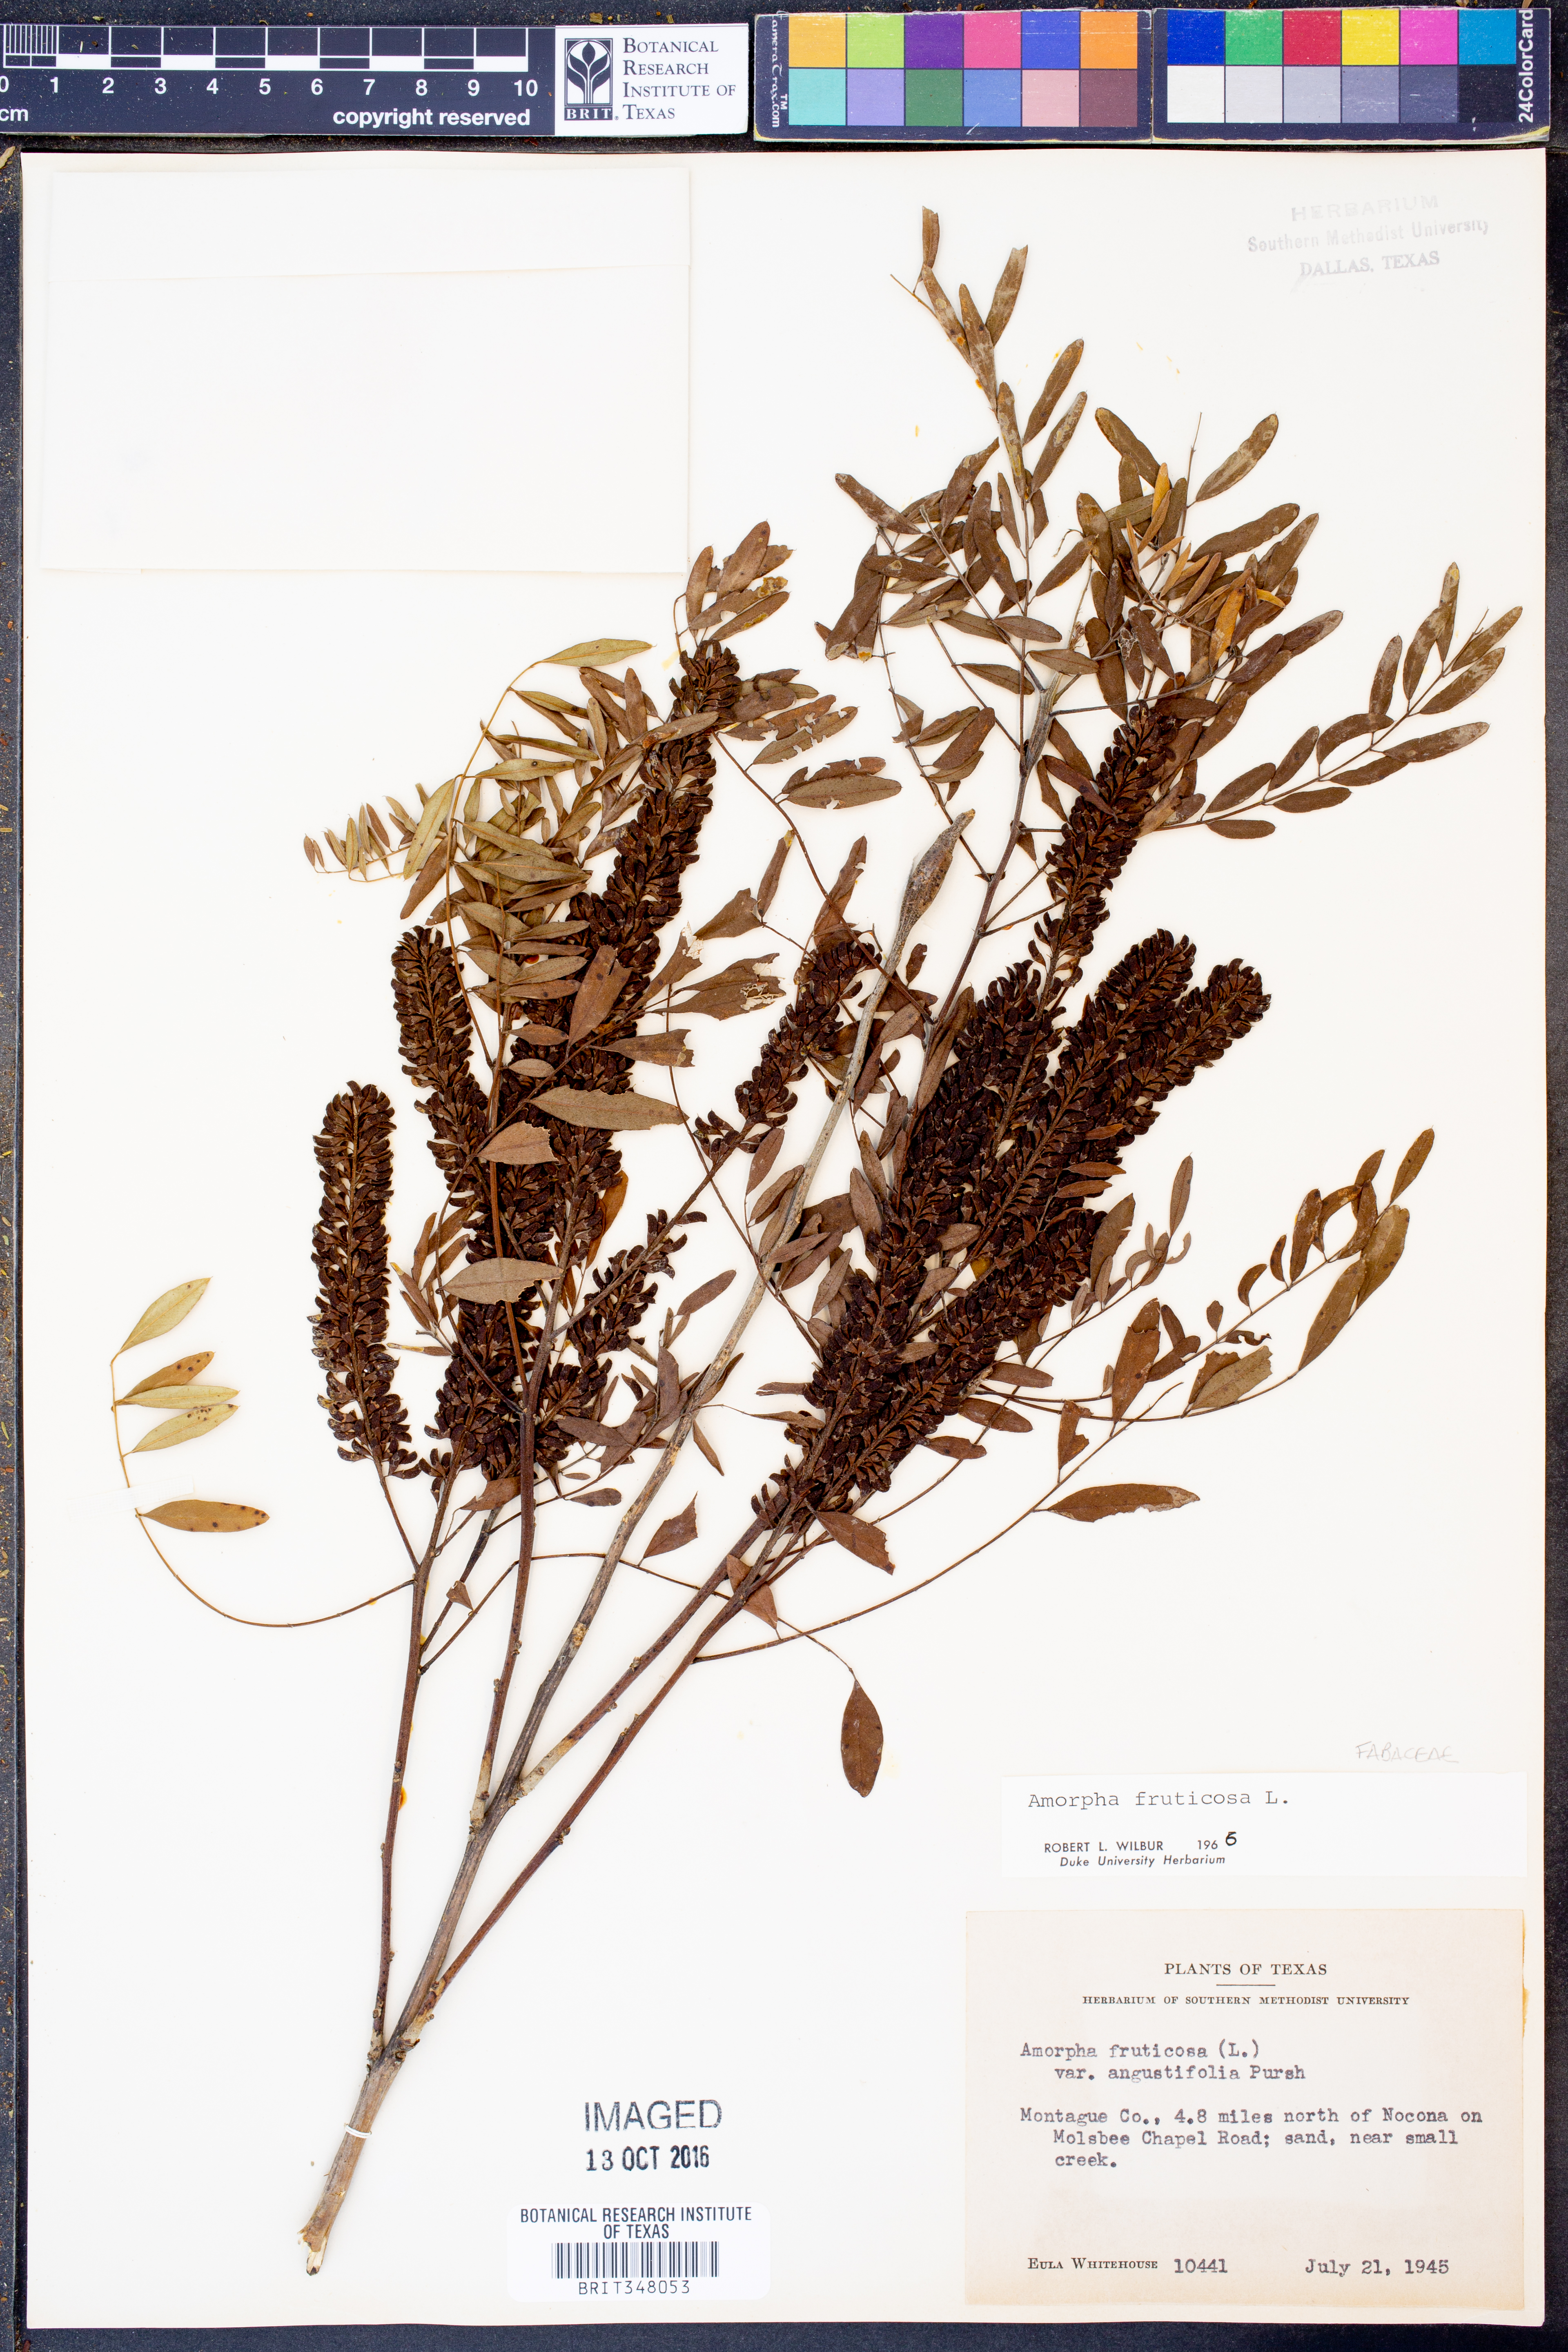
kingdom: Plantae
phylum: Tracheophyta
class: Magnoliopsida
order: Fabales
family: Fabaceae
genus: Amorpha
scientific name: Amorpha fruticosa
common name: False indigo
